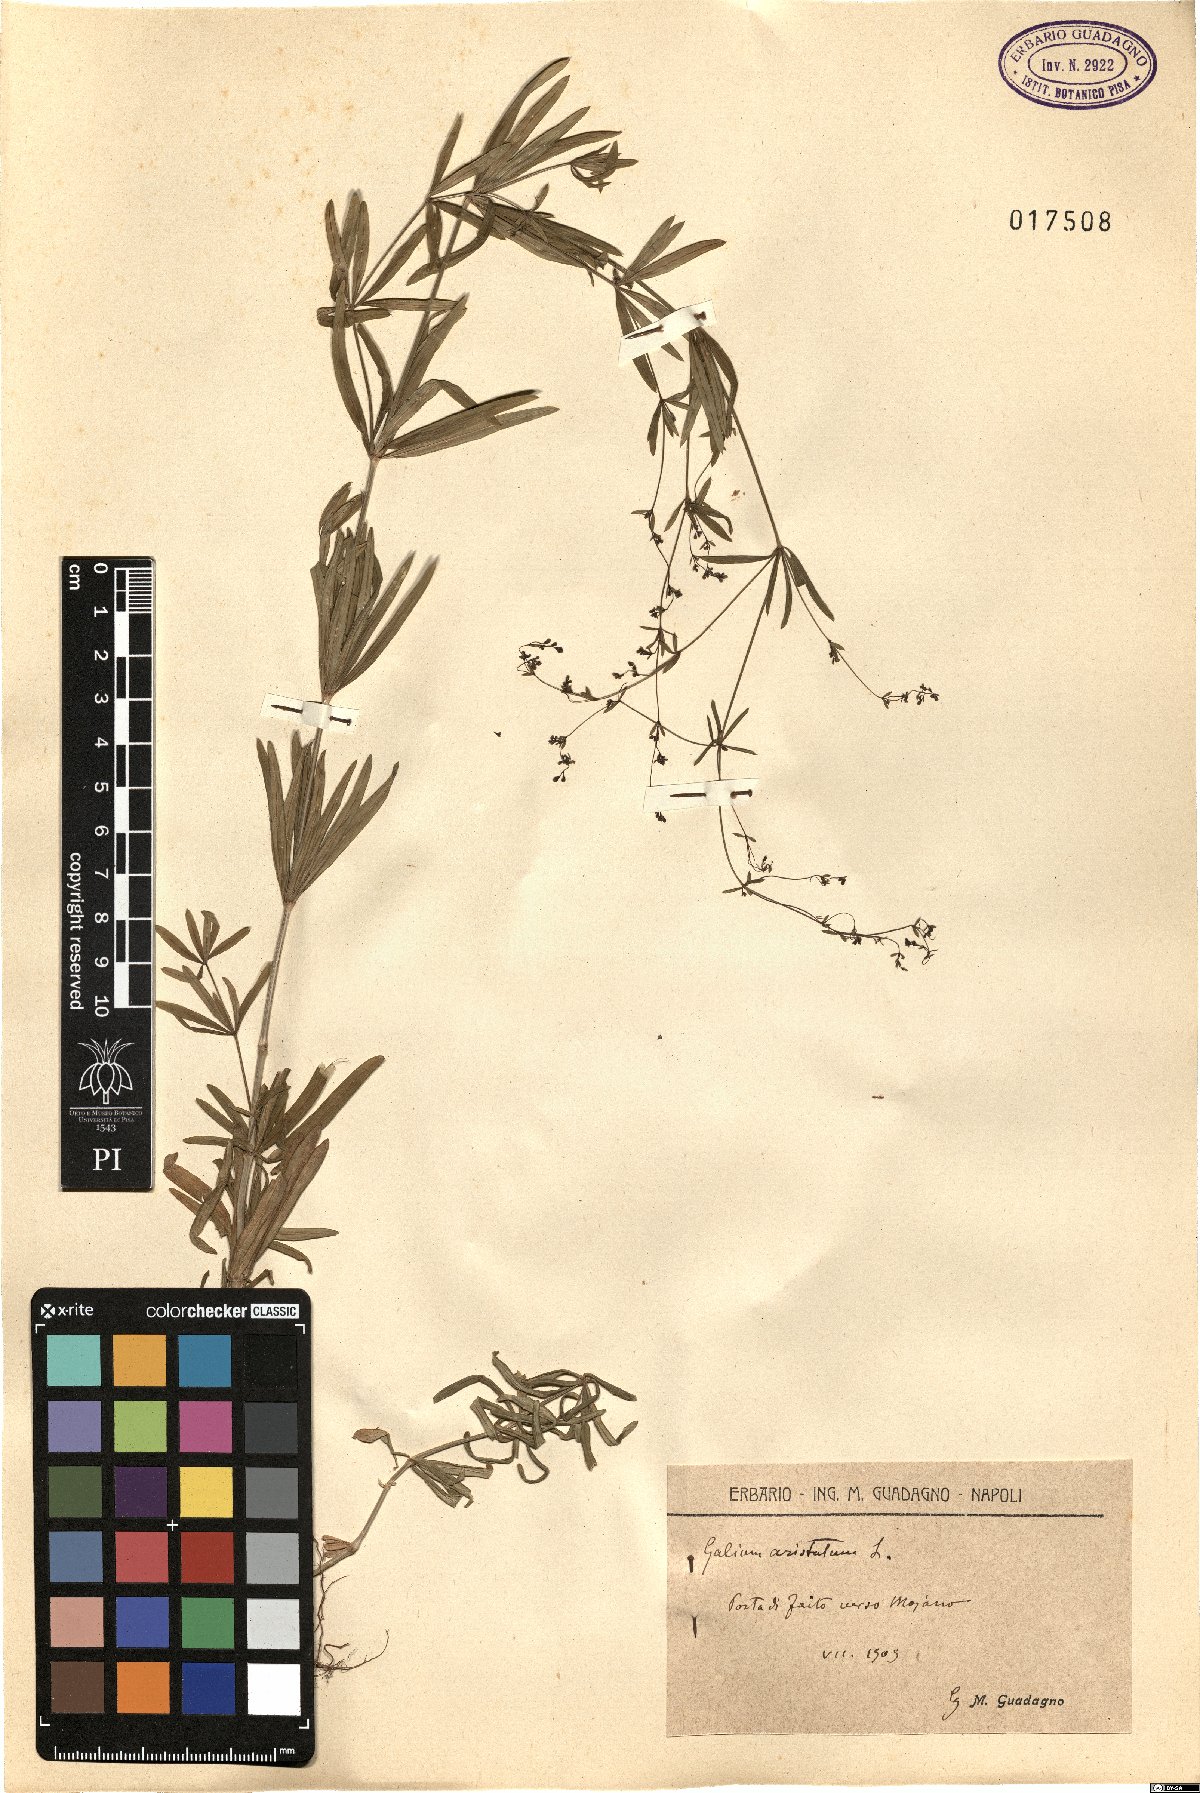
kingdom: Plantae
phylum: Tracheophyta
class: Magnoliopsida
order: Gentianales
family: Rubiaceae
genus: Galium
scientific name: Galium aristatum
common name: Awned bedstraw
